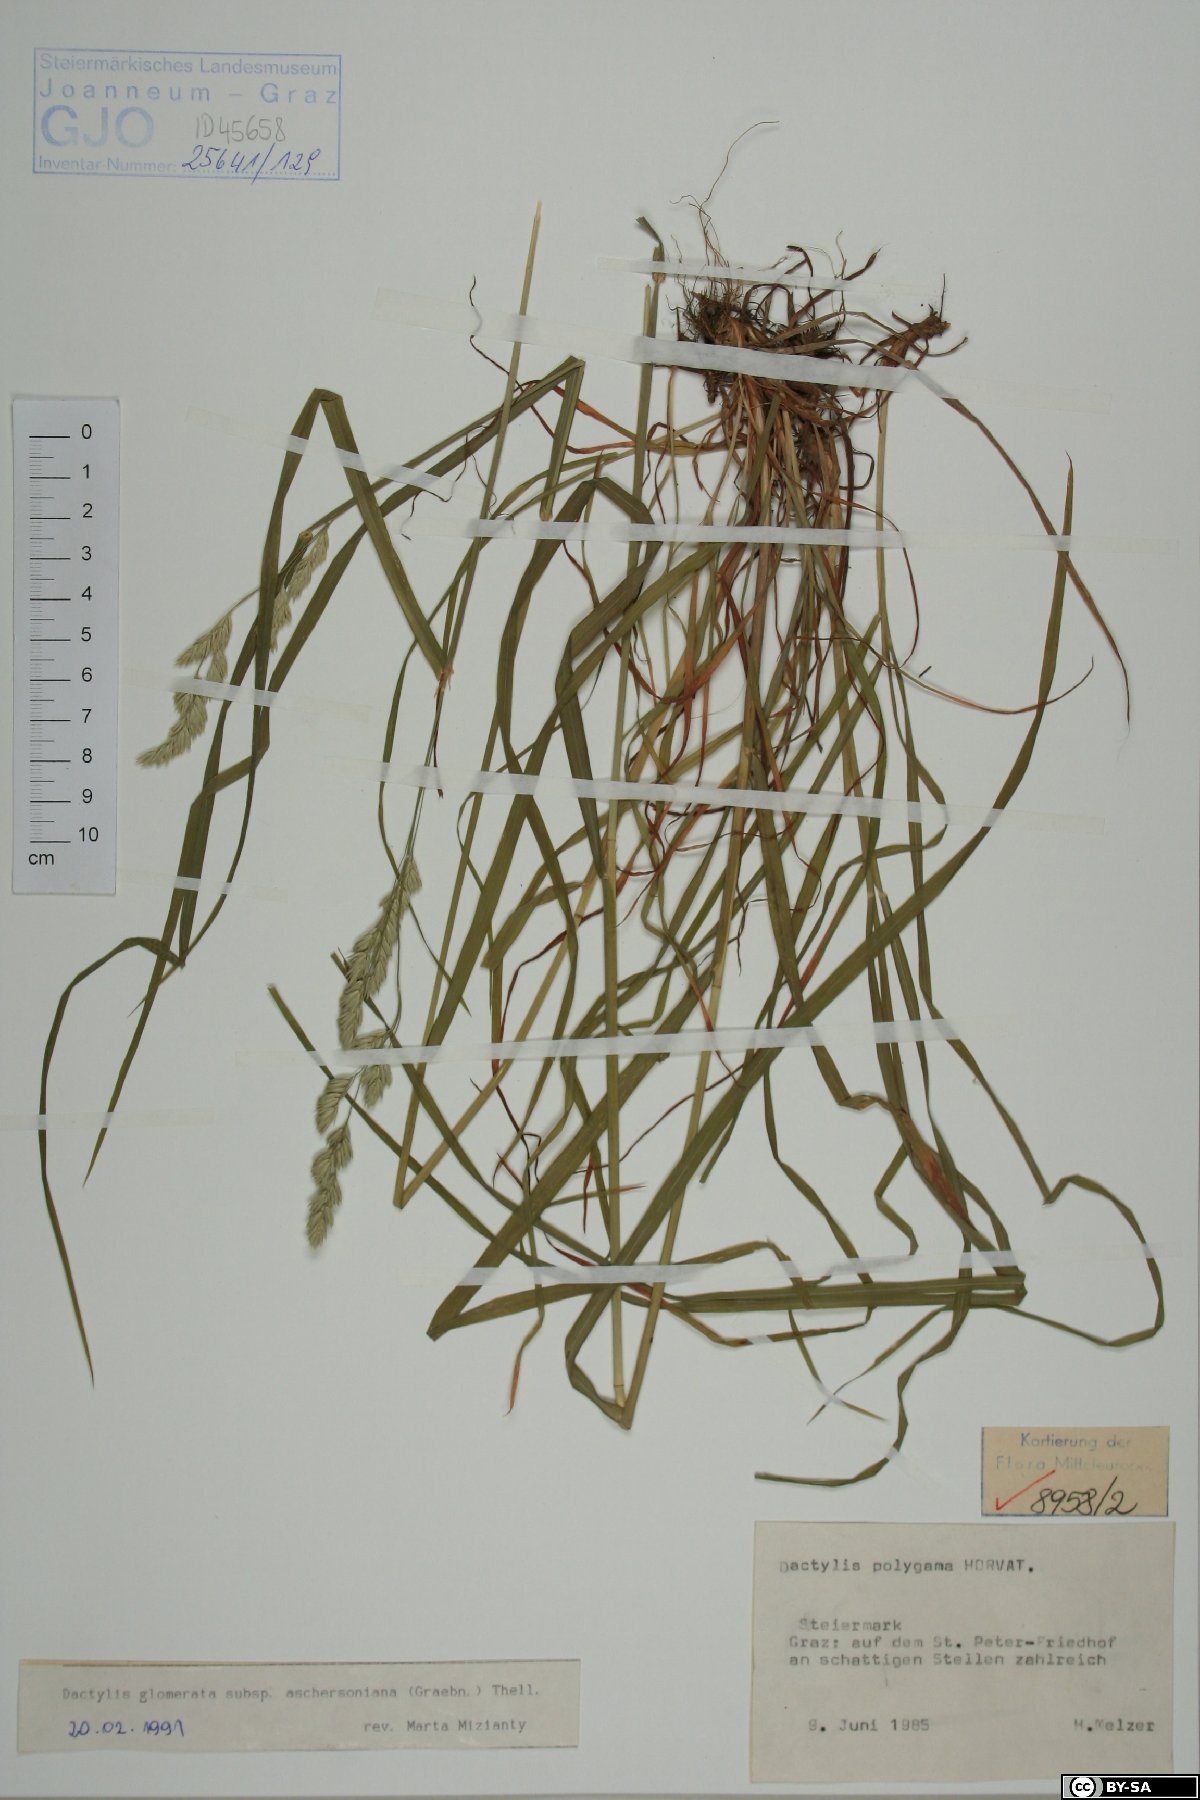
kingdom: Plantae
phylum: Tracheophyta
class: Liliopsida
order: Poales
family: Poaceae
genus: Dactylis
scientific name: Dactylis glomerata
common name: Orchardgrass
